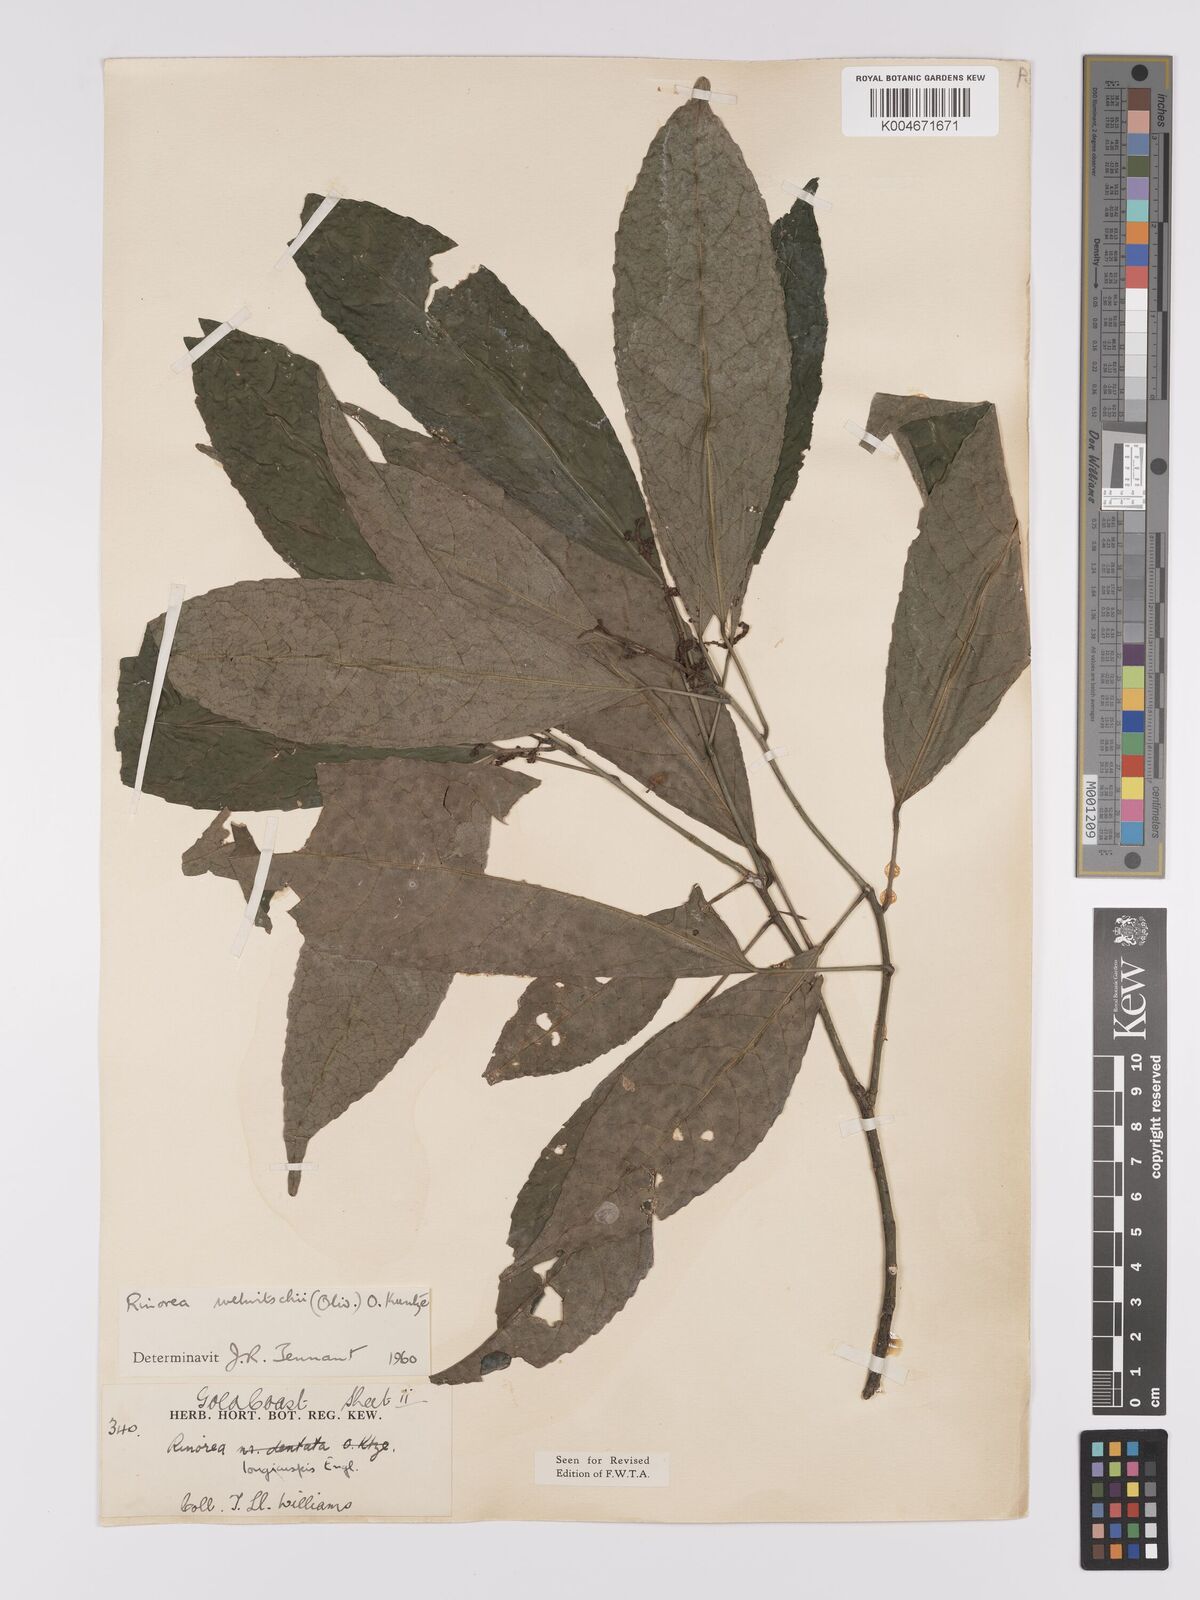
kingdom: Plantae
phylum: Tracheophyta
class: Magnoliopsida
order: Malpighiales
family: Violaceae
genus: Rinorea
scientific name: Rinorea welwitschii
